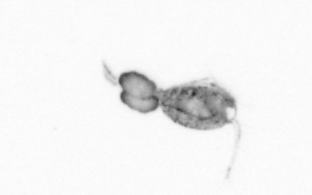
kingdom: Animalia
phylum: Arthropoda
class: Copepoda
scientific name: Copepoda
